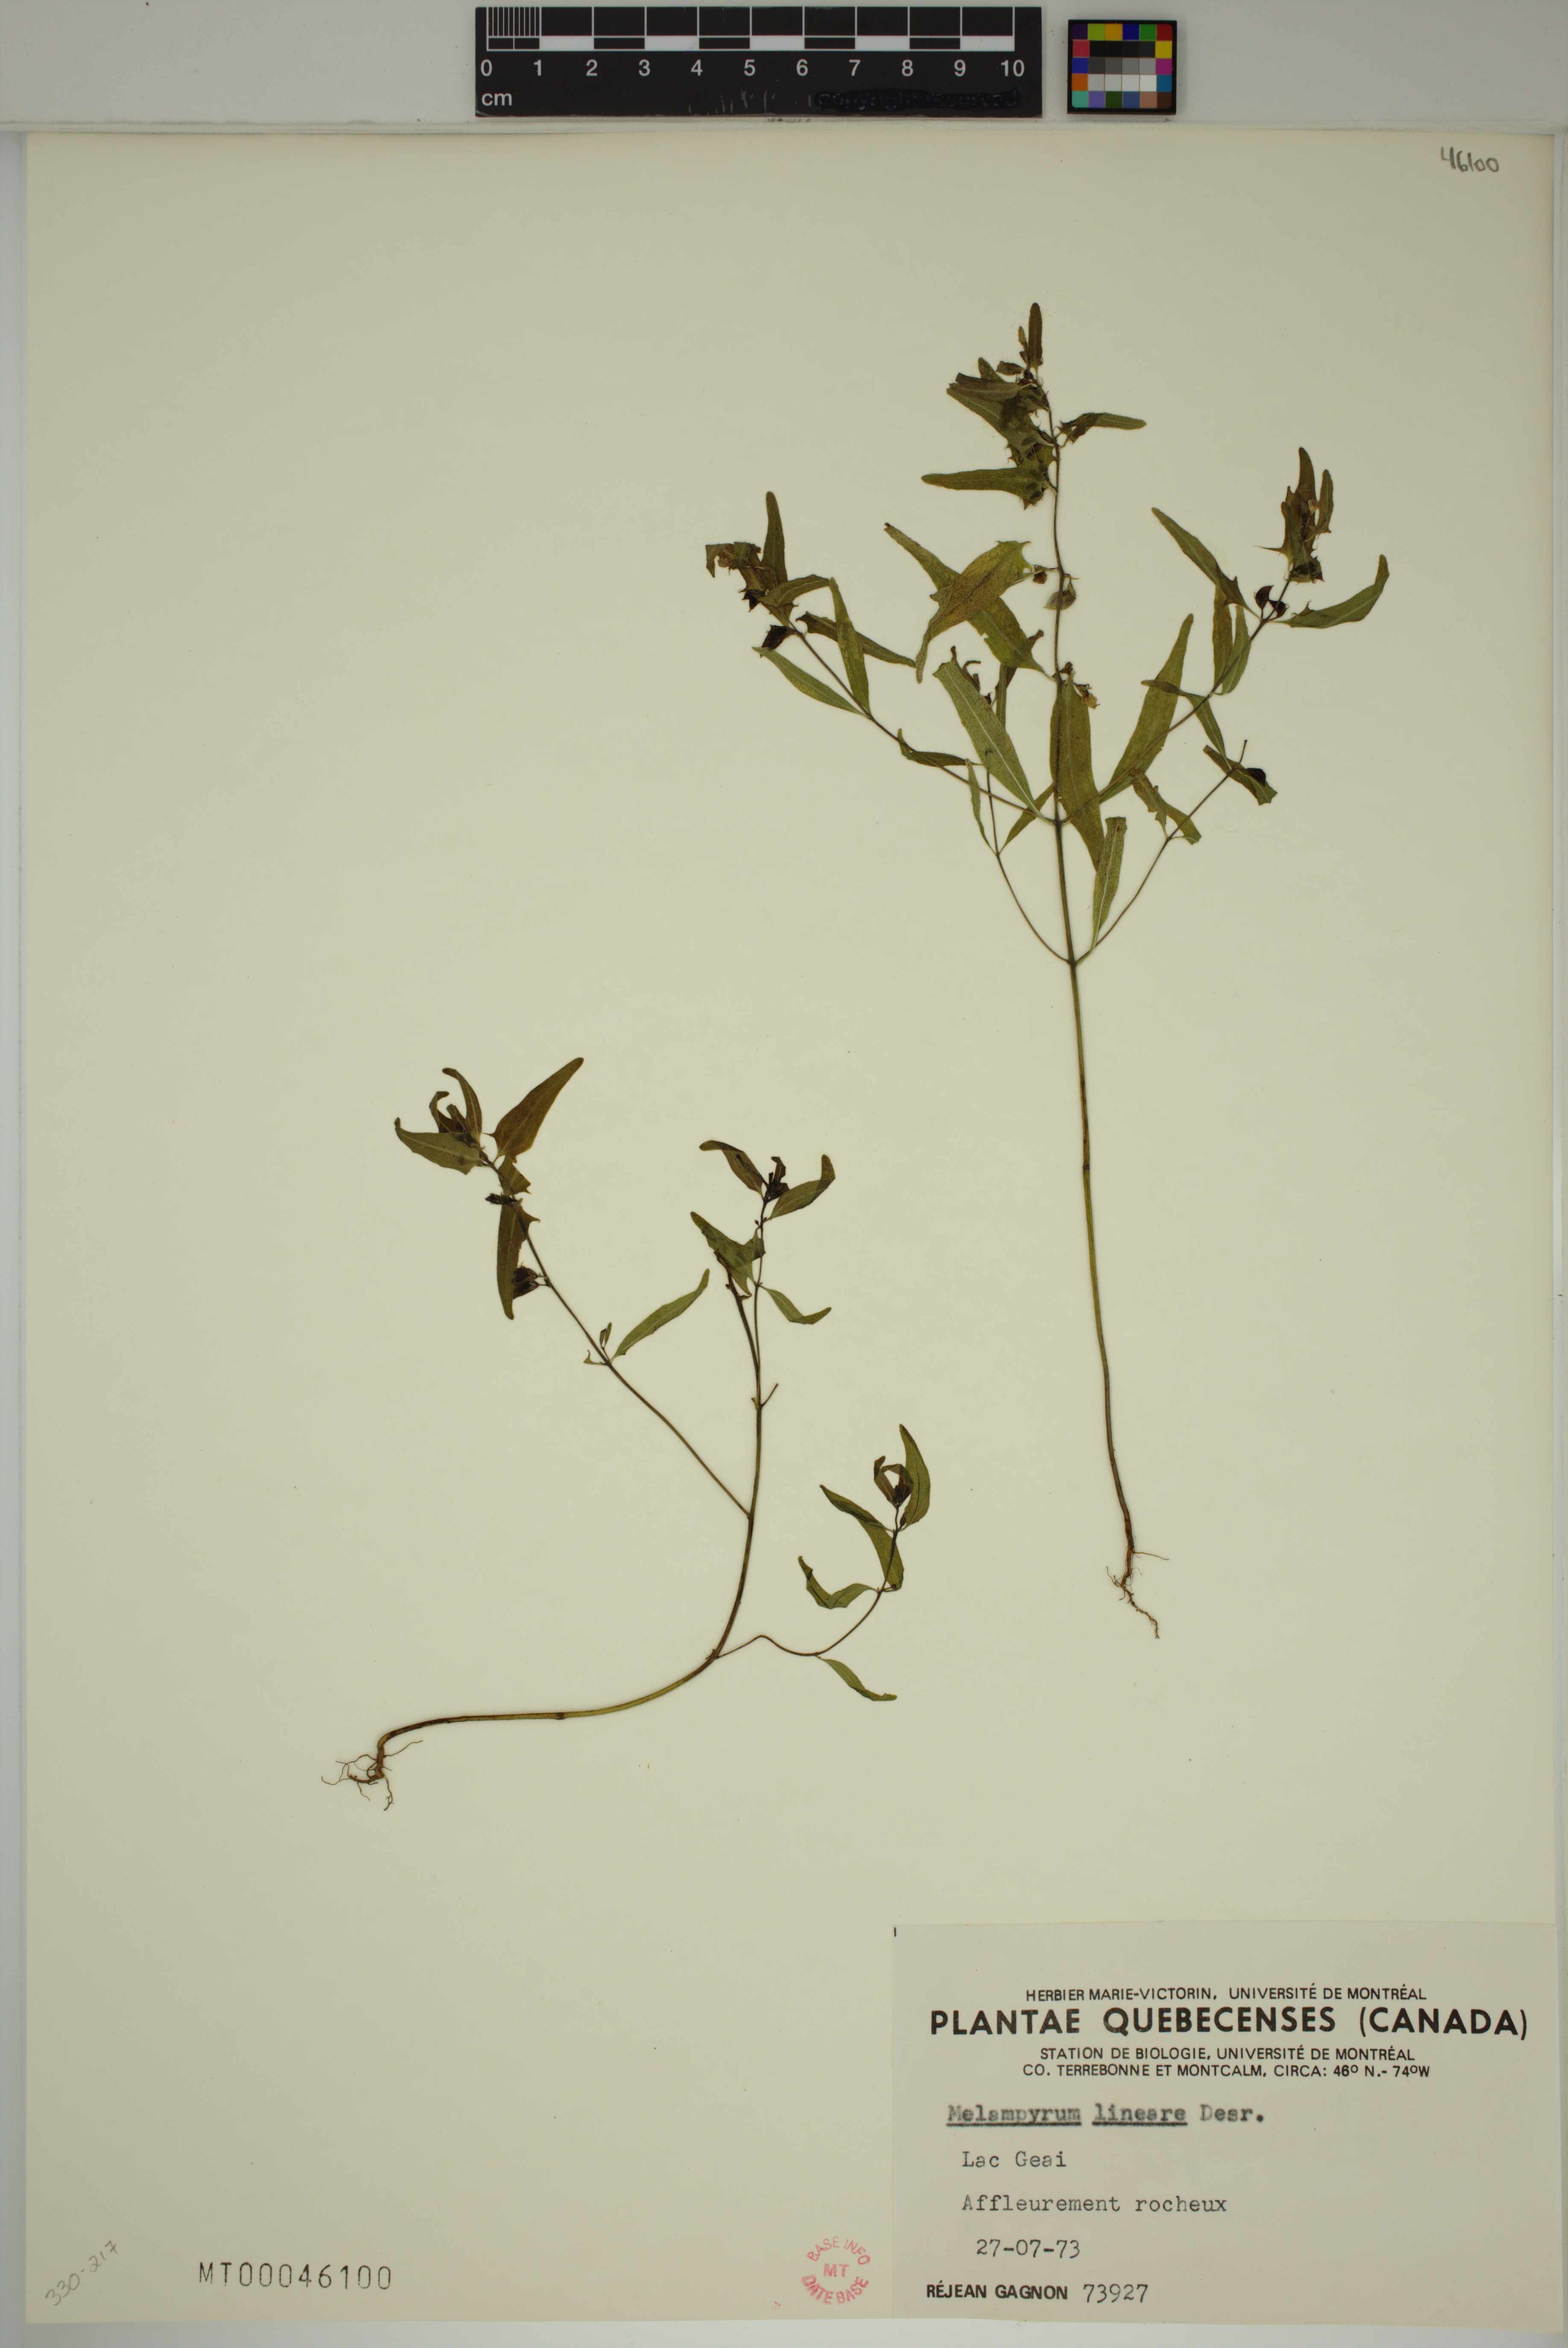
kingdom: Plantae
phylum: Tracheophyta
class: Magnoliopsida
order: Lamiales
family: Orobanchaceae
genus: Melampyrum
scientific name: Melampyrum lineare
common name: American cow-wheat
